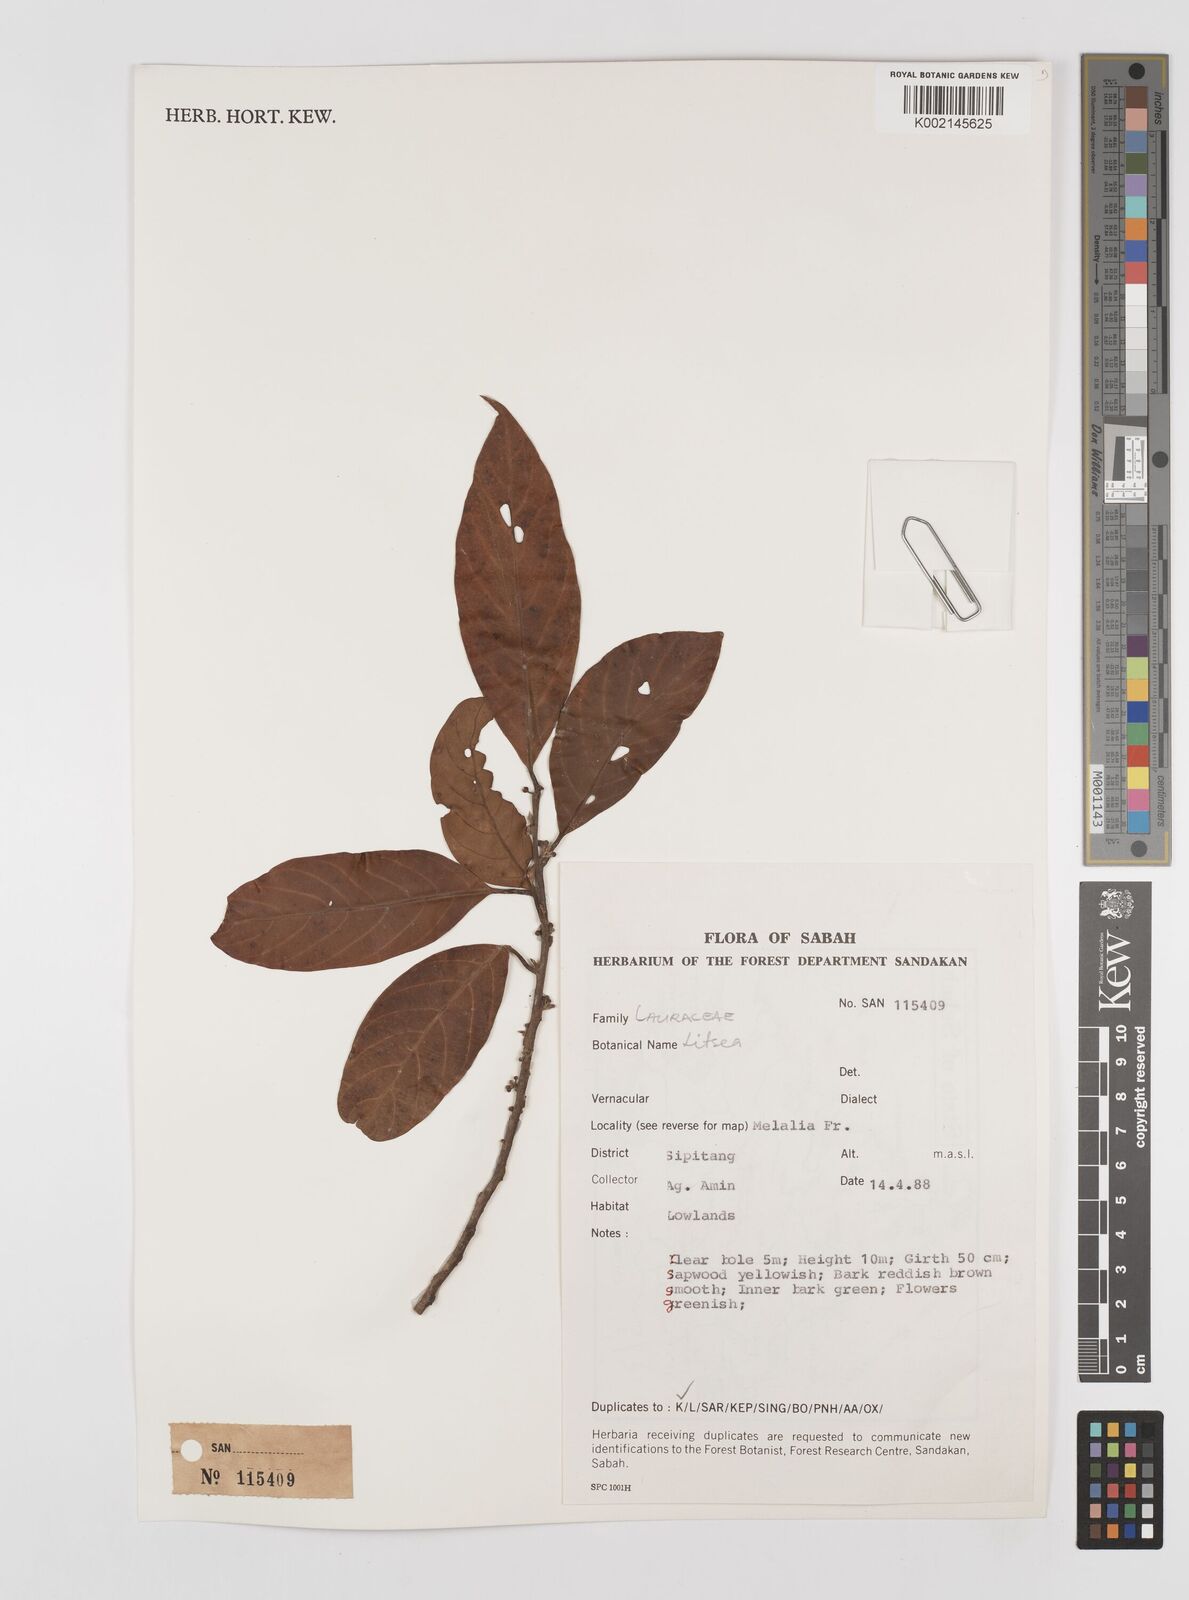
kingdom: Plantae
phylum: Tracheophyta
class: Magnoliopsida
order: Laurales
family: Lauraceae
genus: Litsea
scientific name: Litsea
